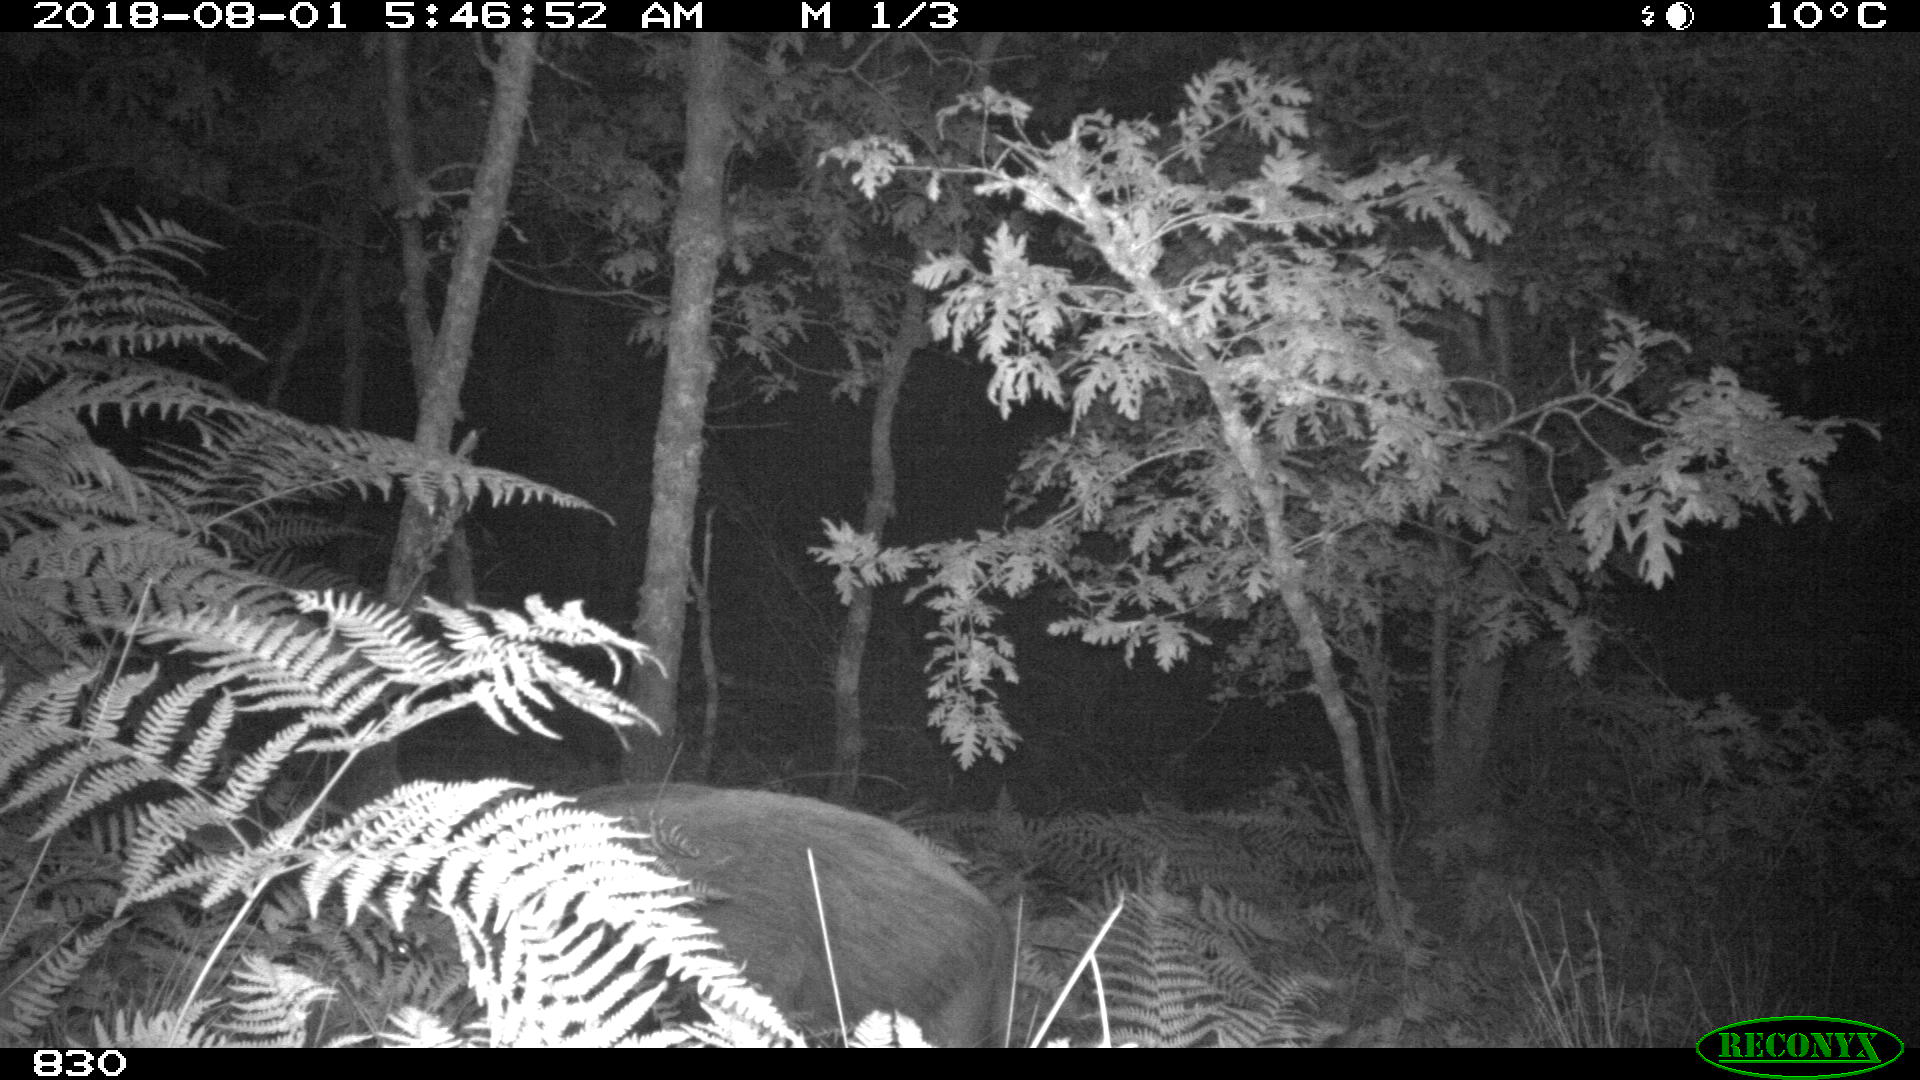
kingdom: Animalia
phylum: Chordata
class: Mammalia
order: Artiodactyla
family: Suidae
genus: Sus
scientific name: Sus scrofa
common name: Wild boar
